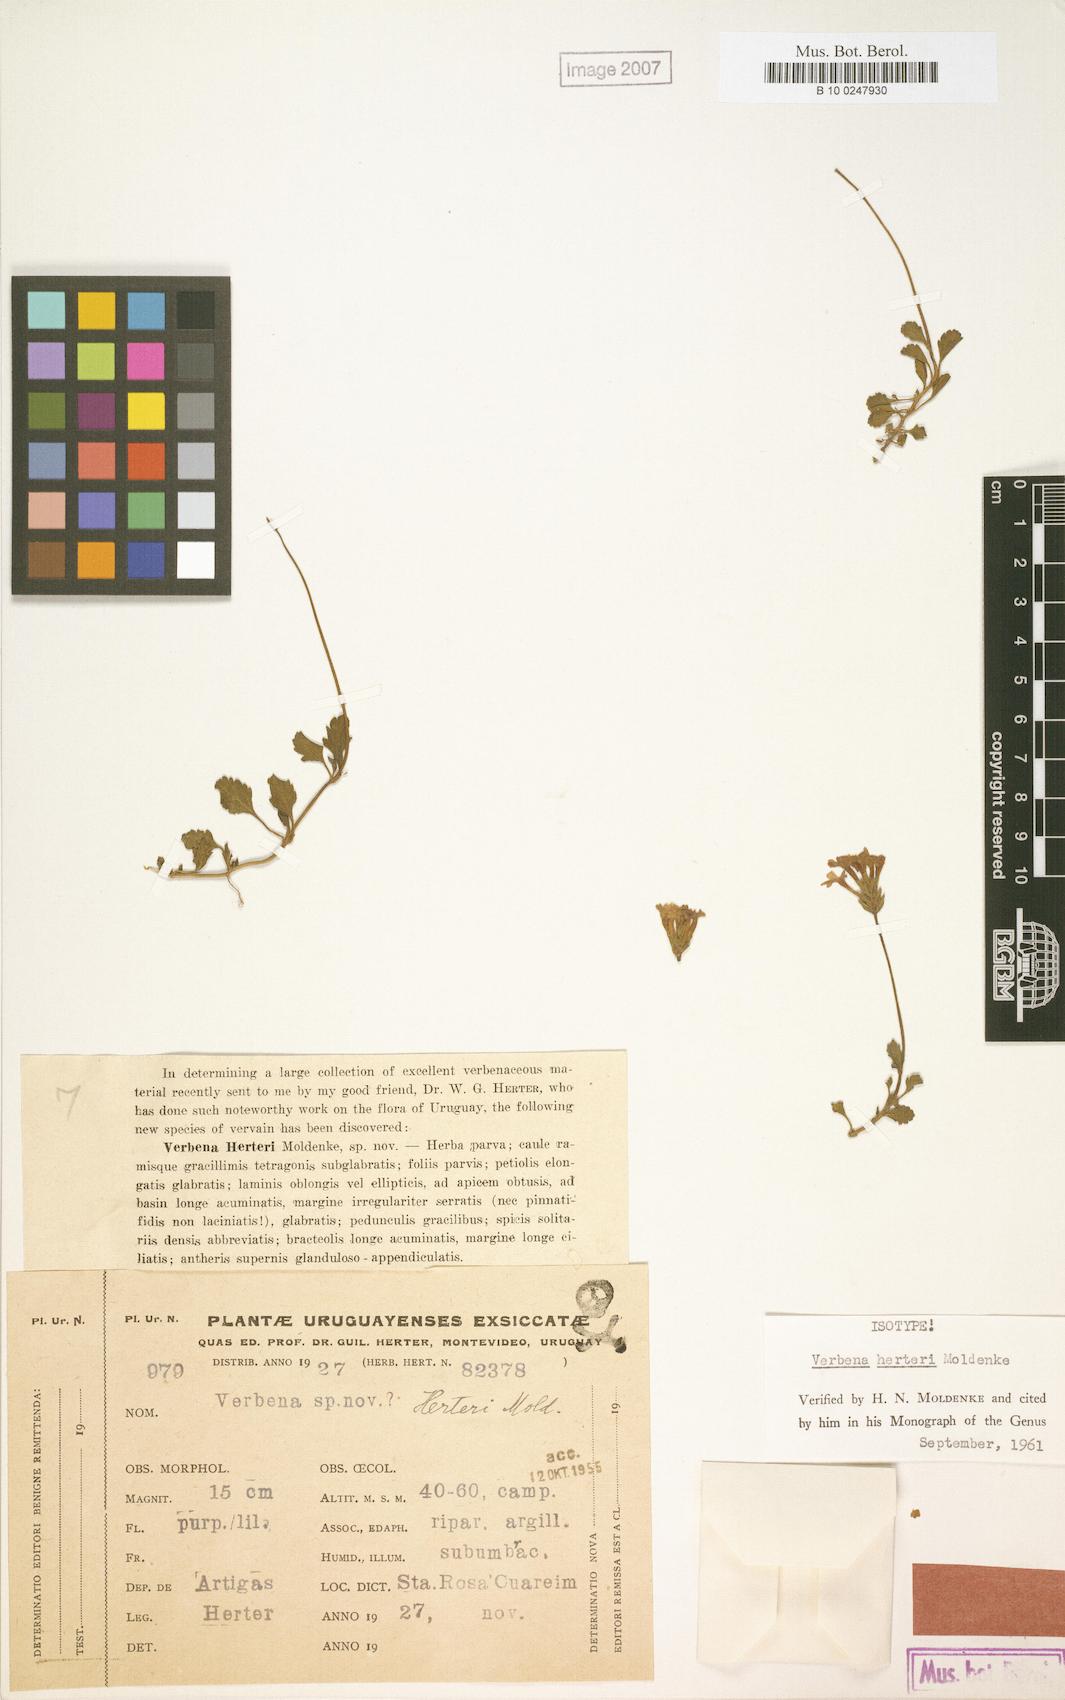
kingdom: Plantae
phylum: Tracheophyta
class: Magnoliopsida
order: Lamiales
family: Verbenaceae
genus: Verbena
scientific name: Verbena herteri
